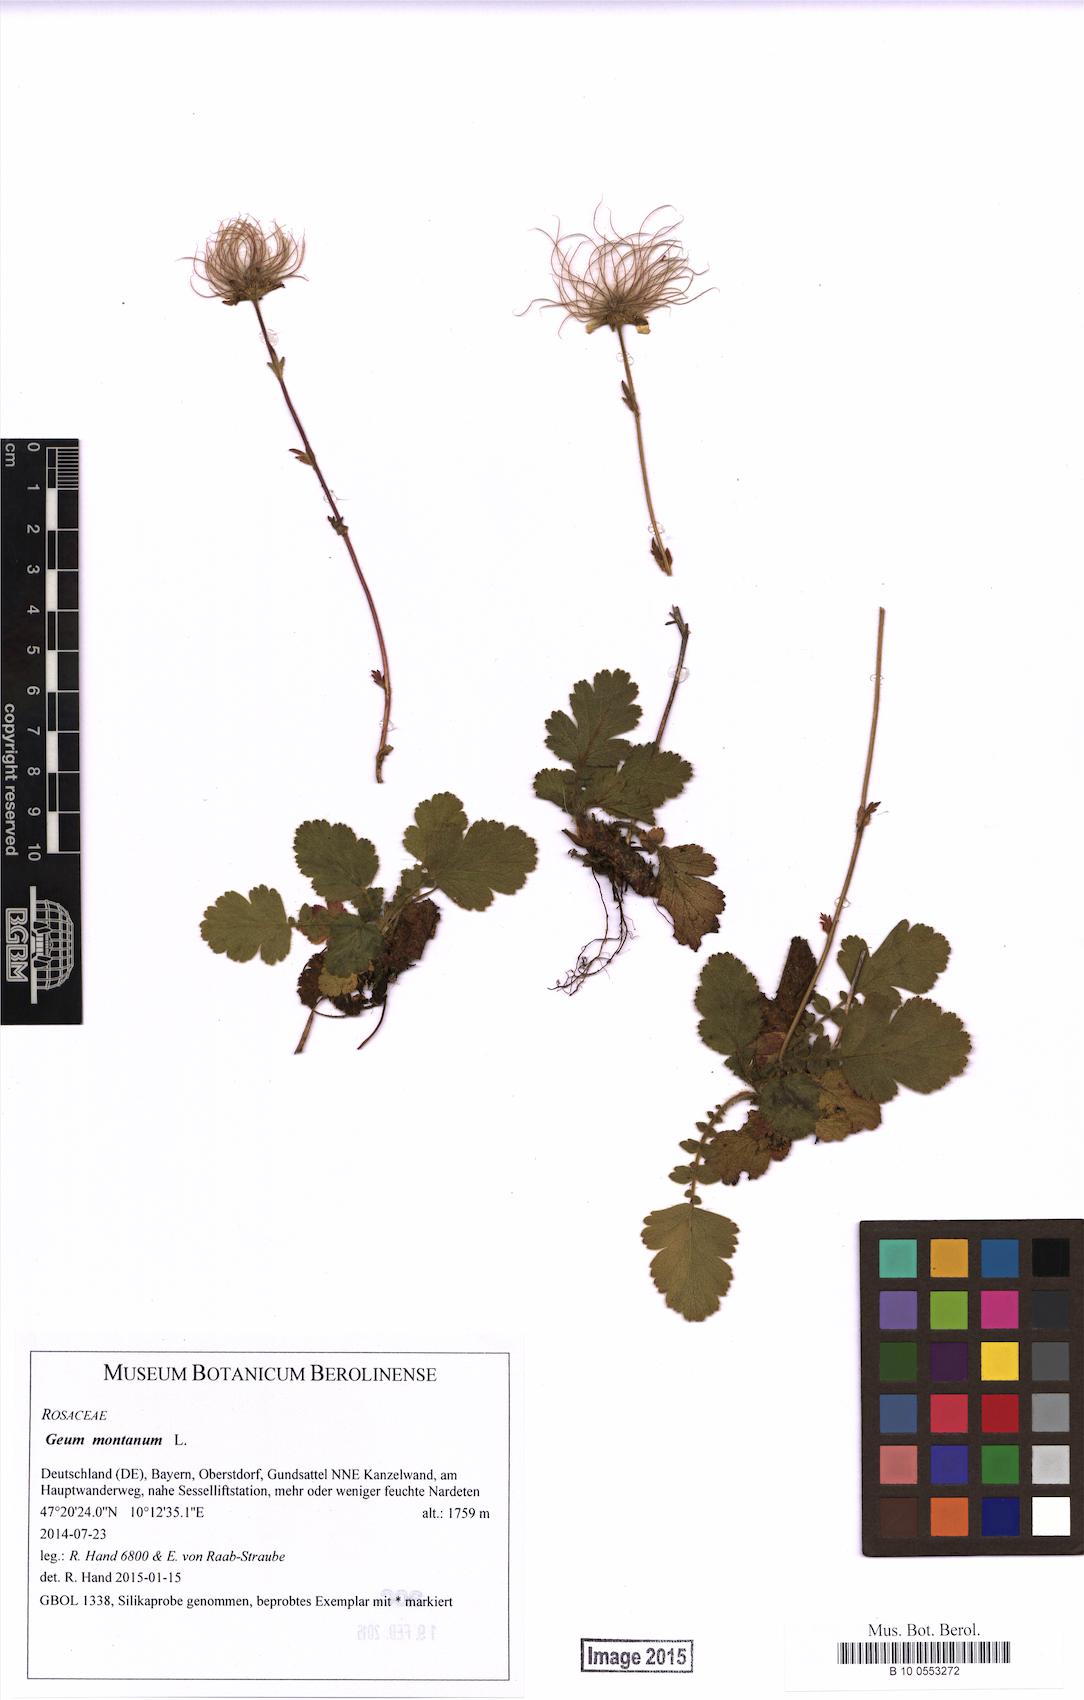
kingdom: Plantae
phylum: Tracheophyta
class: Magnoliopsida
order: Rosales
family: Rosaceae
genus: Geum
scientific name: Geum montanum
